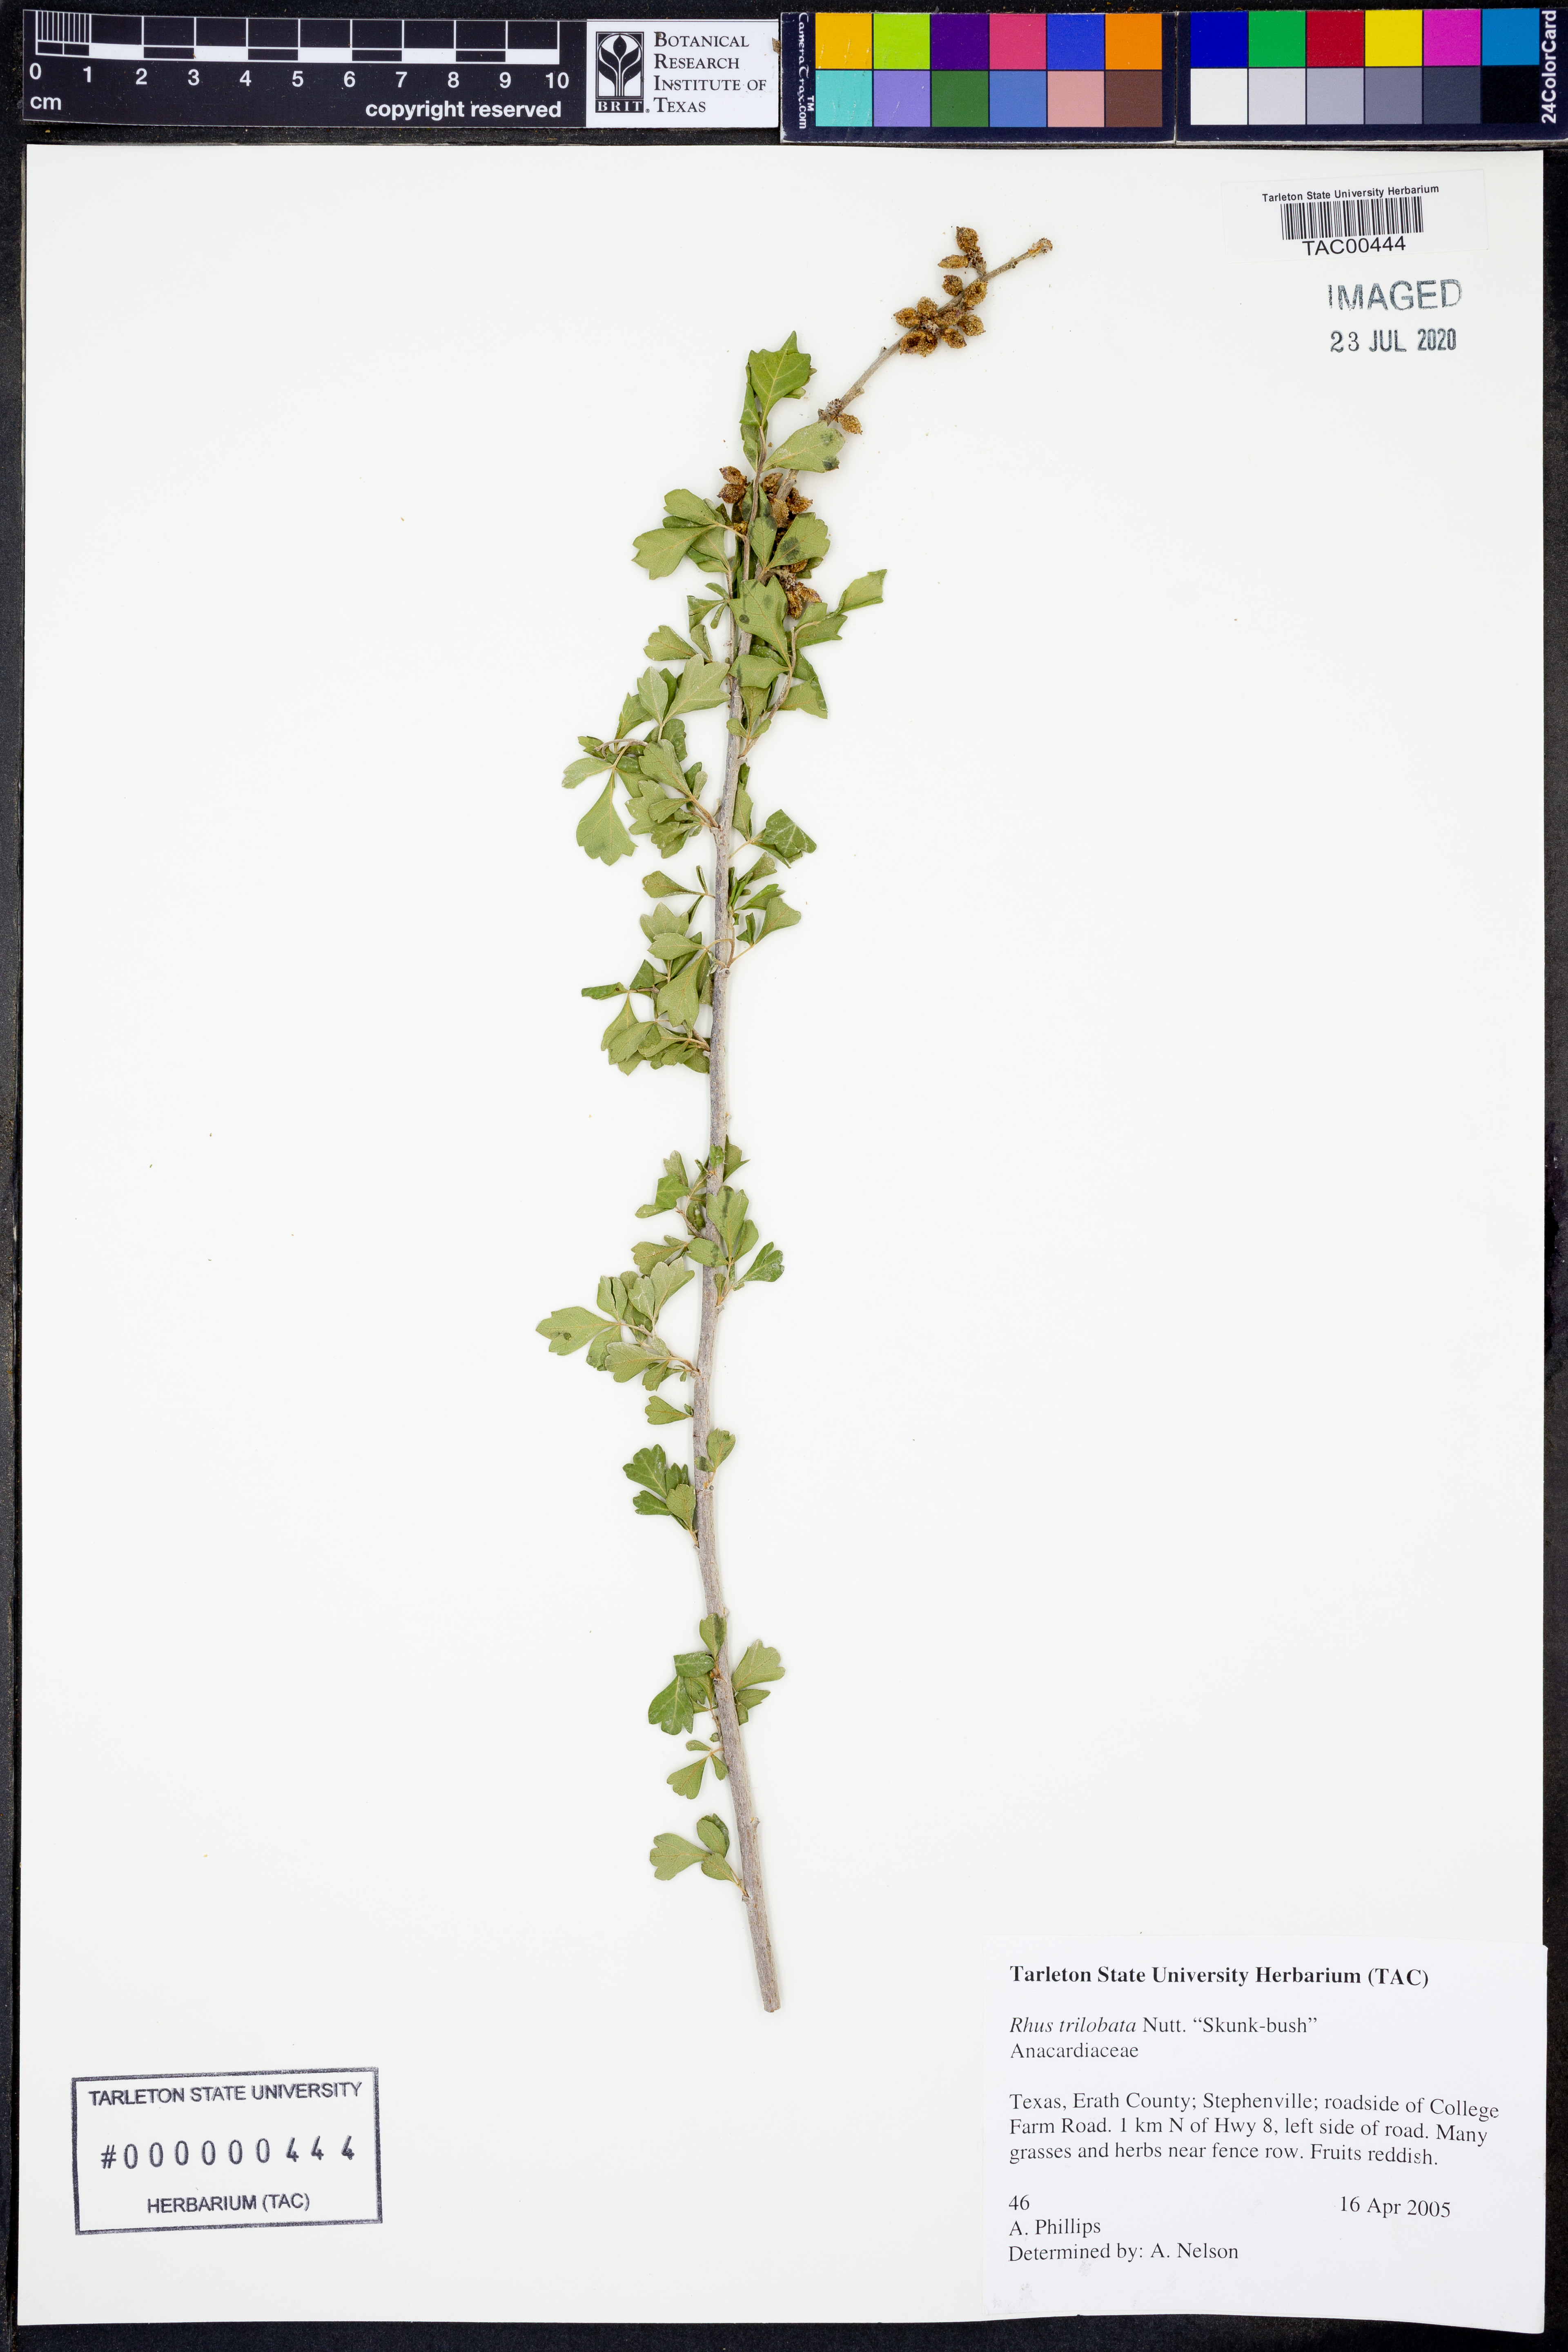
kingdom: Plantae
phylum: Tracheophyta
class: Magnoliopsida
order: Sapindales
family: Anacardiaceae
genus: Rhus
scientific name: Rhus trilobata
